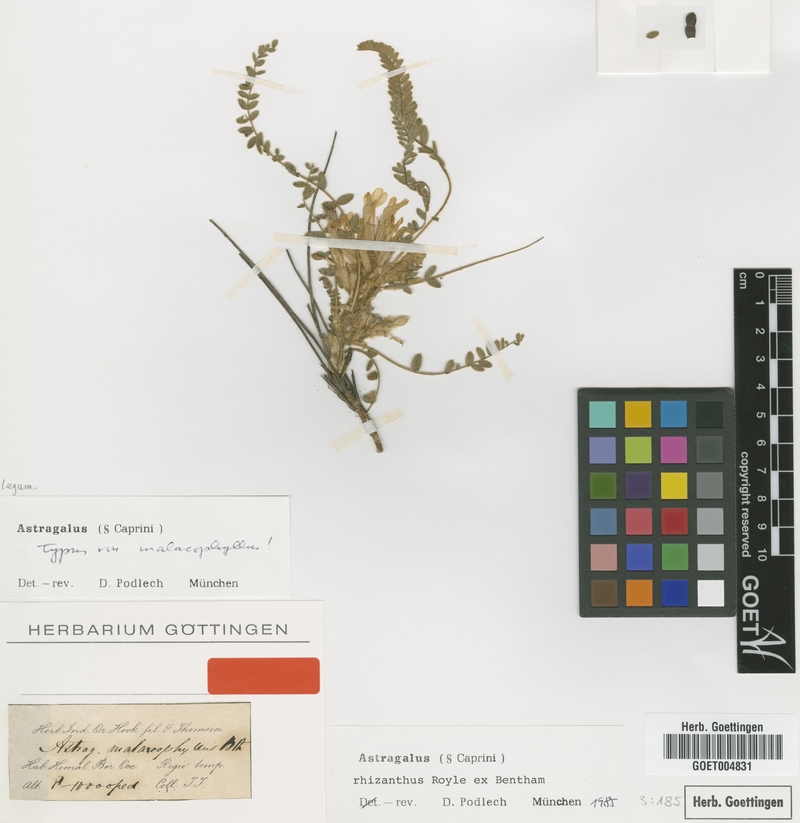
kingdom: Plantae
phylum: Tracheophyta
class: Magnoliopsida
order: Fabales
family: Fabaceae
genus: Astragalus
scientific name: Astragalus rhizanthus
